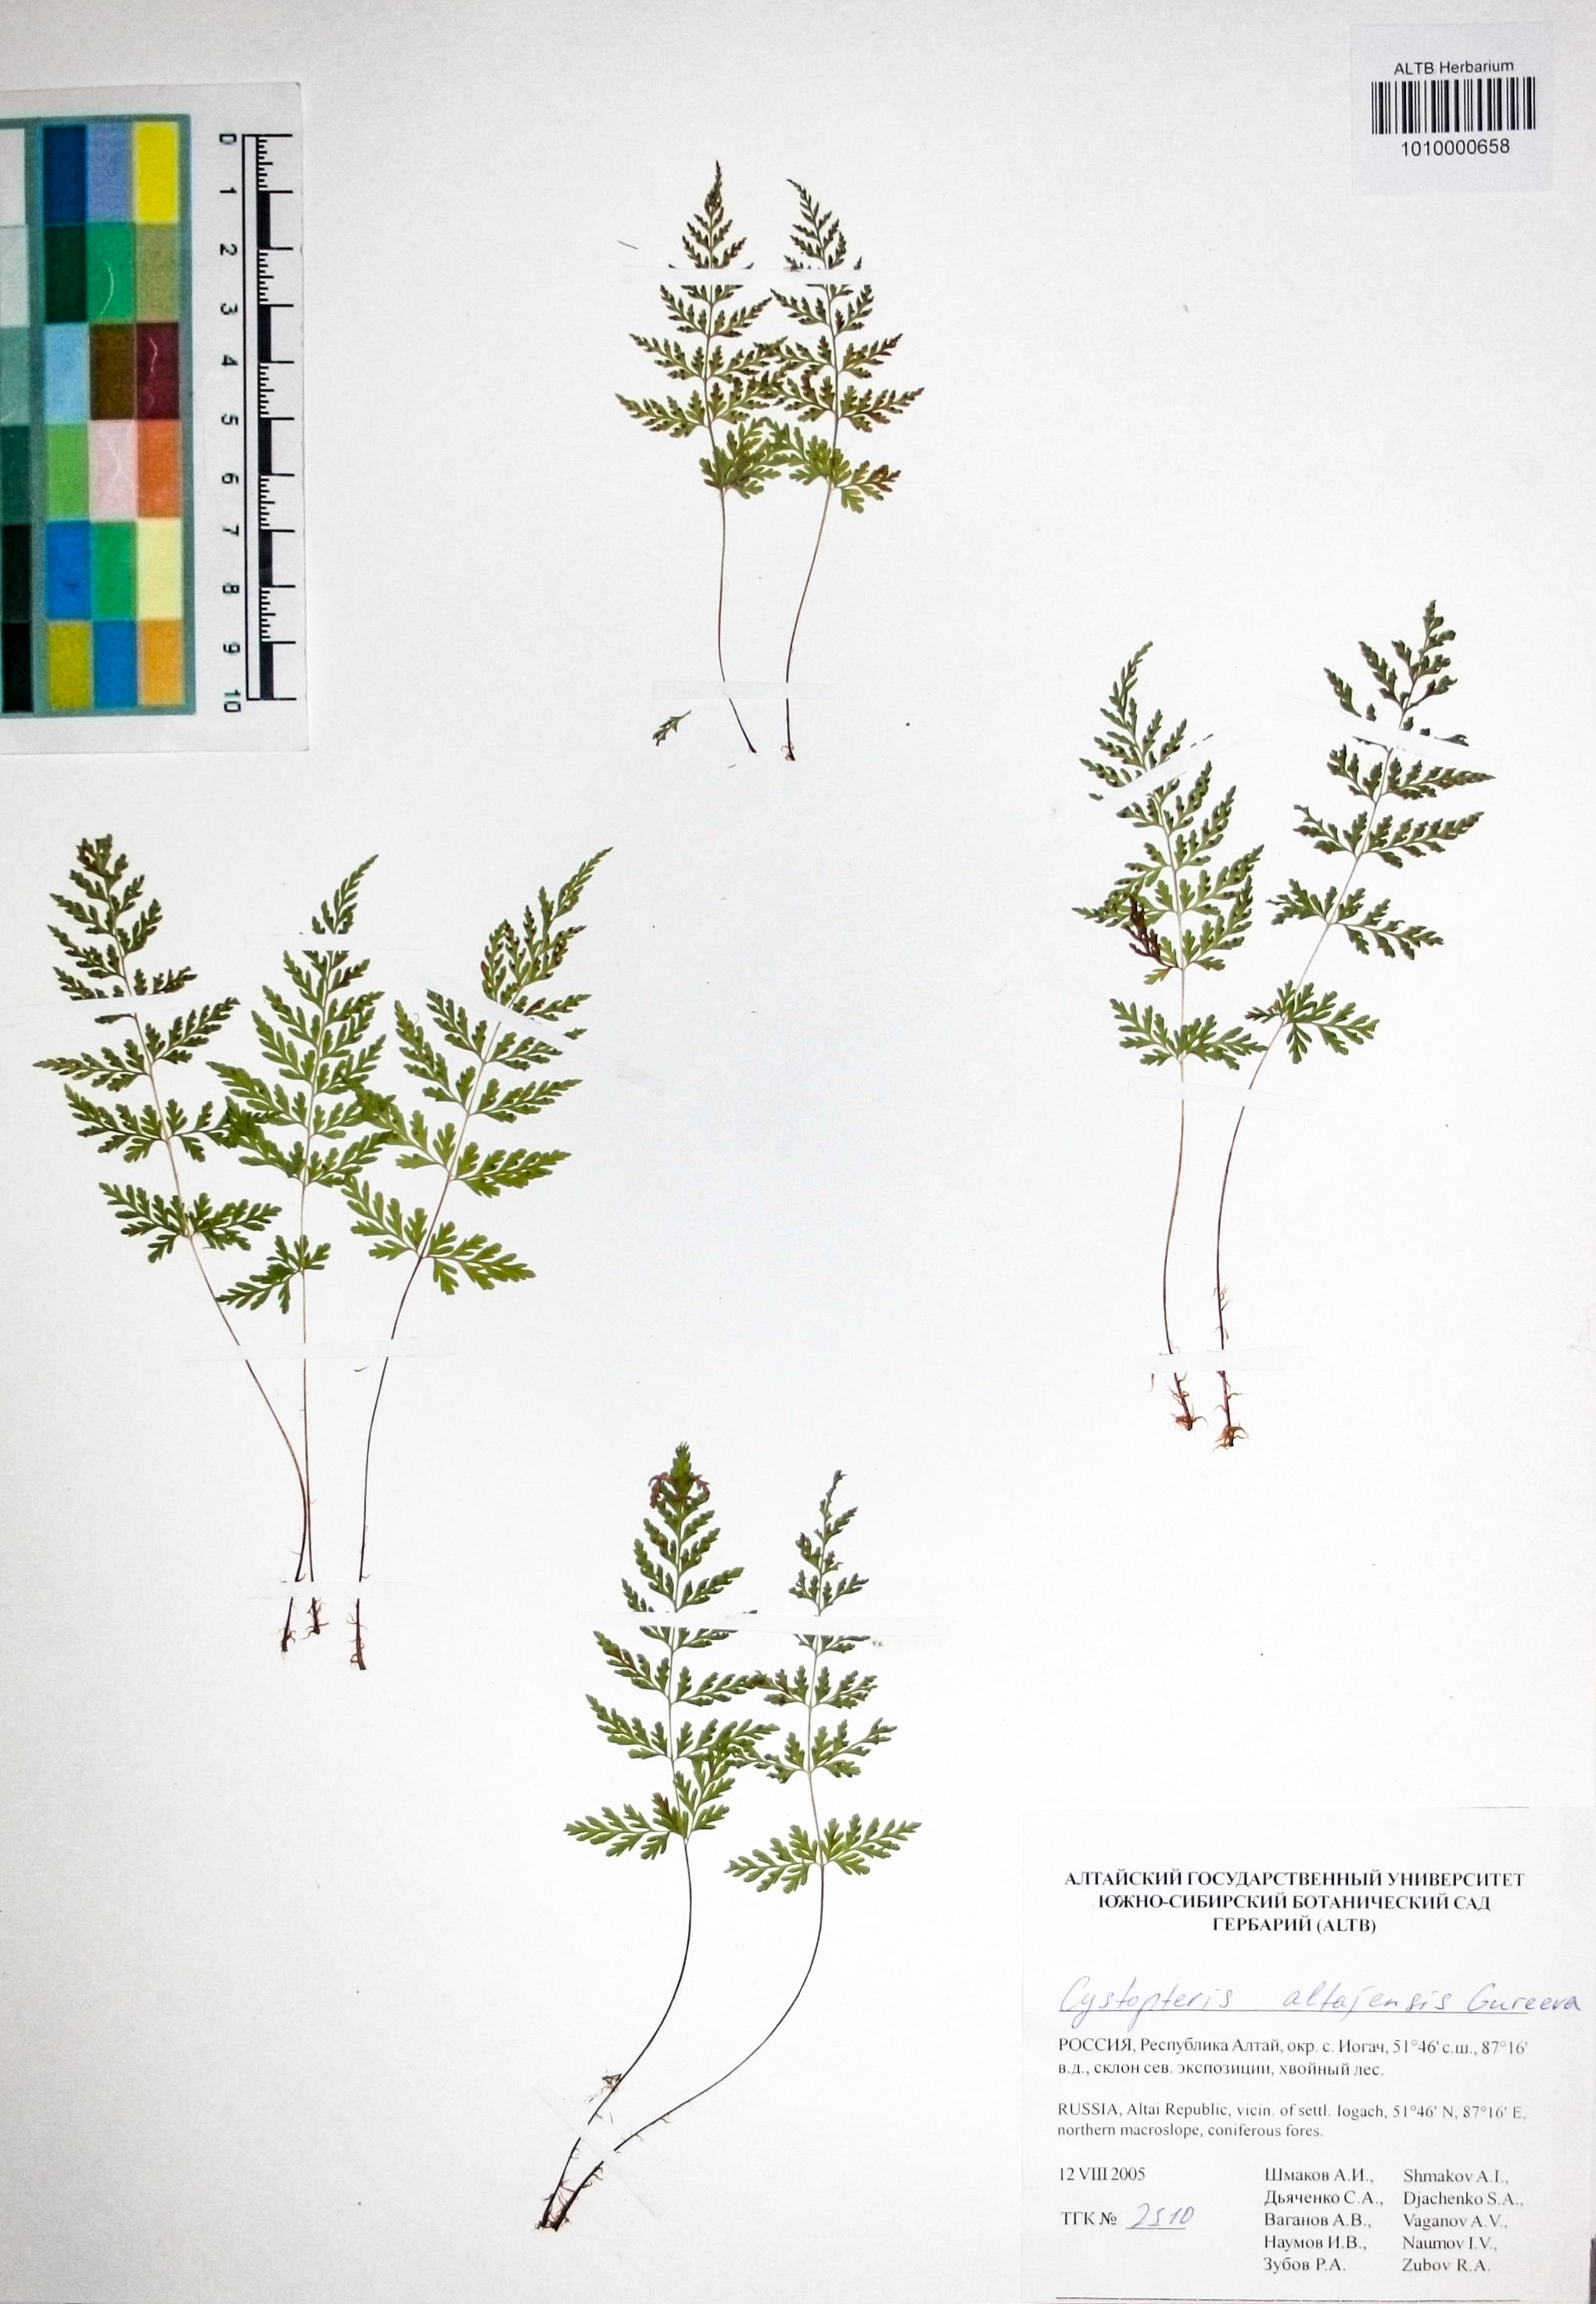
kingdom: Plantae
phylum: Tracheophyta
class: Polypodiopsida
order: Polypodiales
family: Cystopteridaceae
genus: Cystopteris
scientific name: Cystopteris diaphana
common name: Greenish bladder-fern
